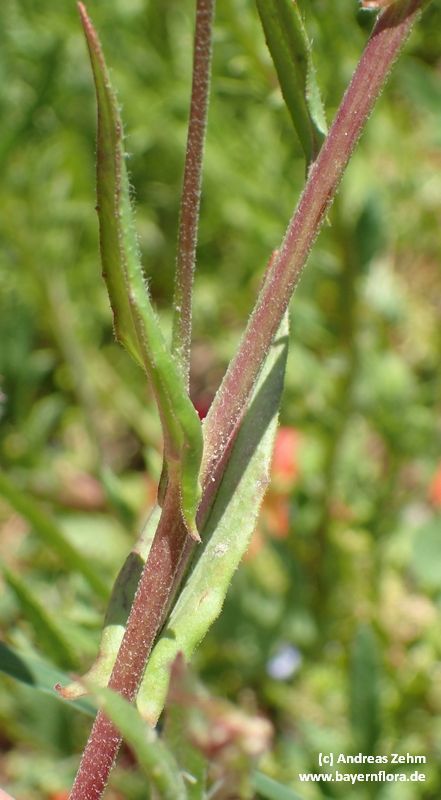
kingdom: Plantae
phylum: Tracheophyta
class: Magnoliopsida
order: Brassicales
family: Brassicaceae
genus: Camelina
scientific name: Camelina sativa
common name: Gold-of-pleasure
